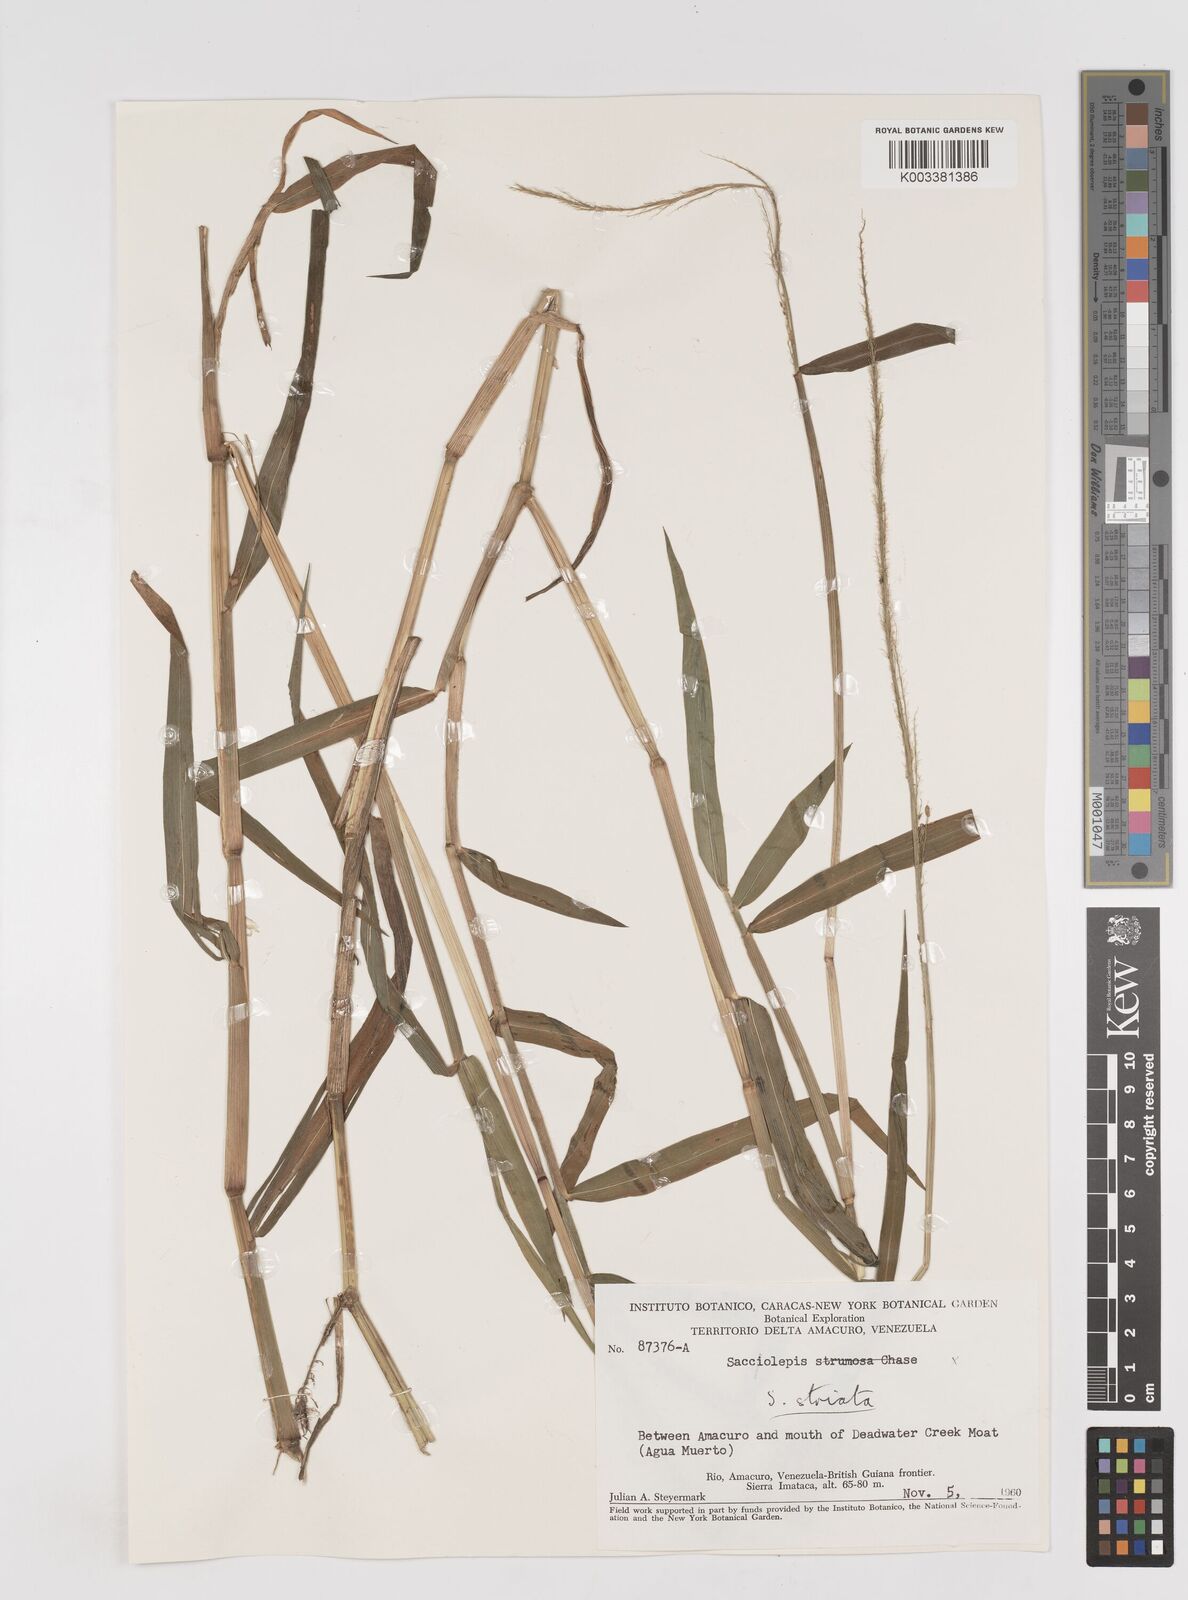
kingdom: Plantae
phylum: Tracheophyta
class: Liliopsida
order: Poales
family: Poaceae
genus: Sacciolepis
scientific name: Sacciolepis striata
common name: American cupscale
